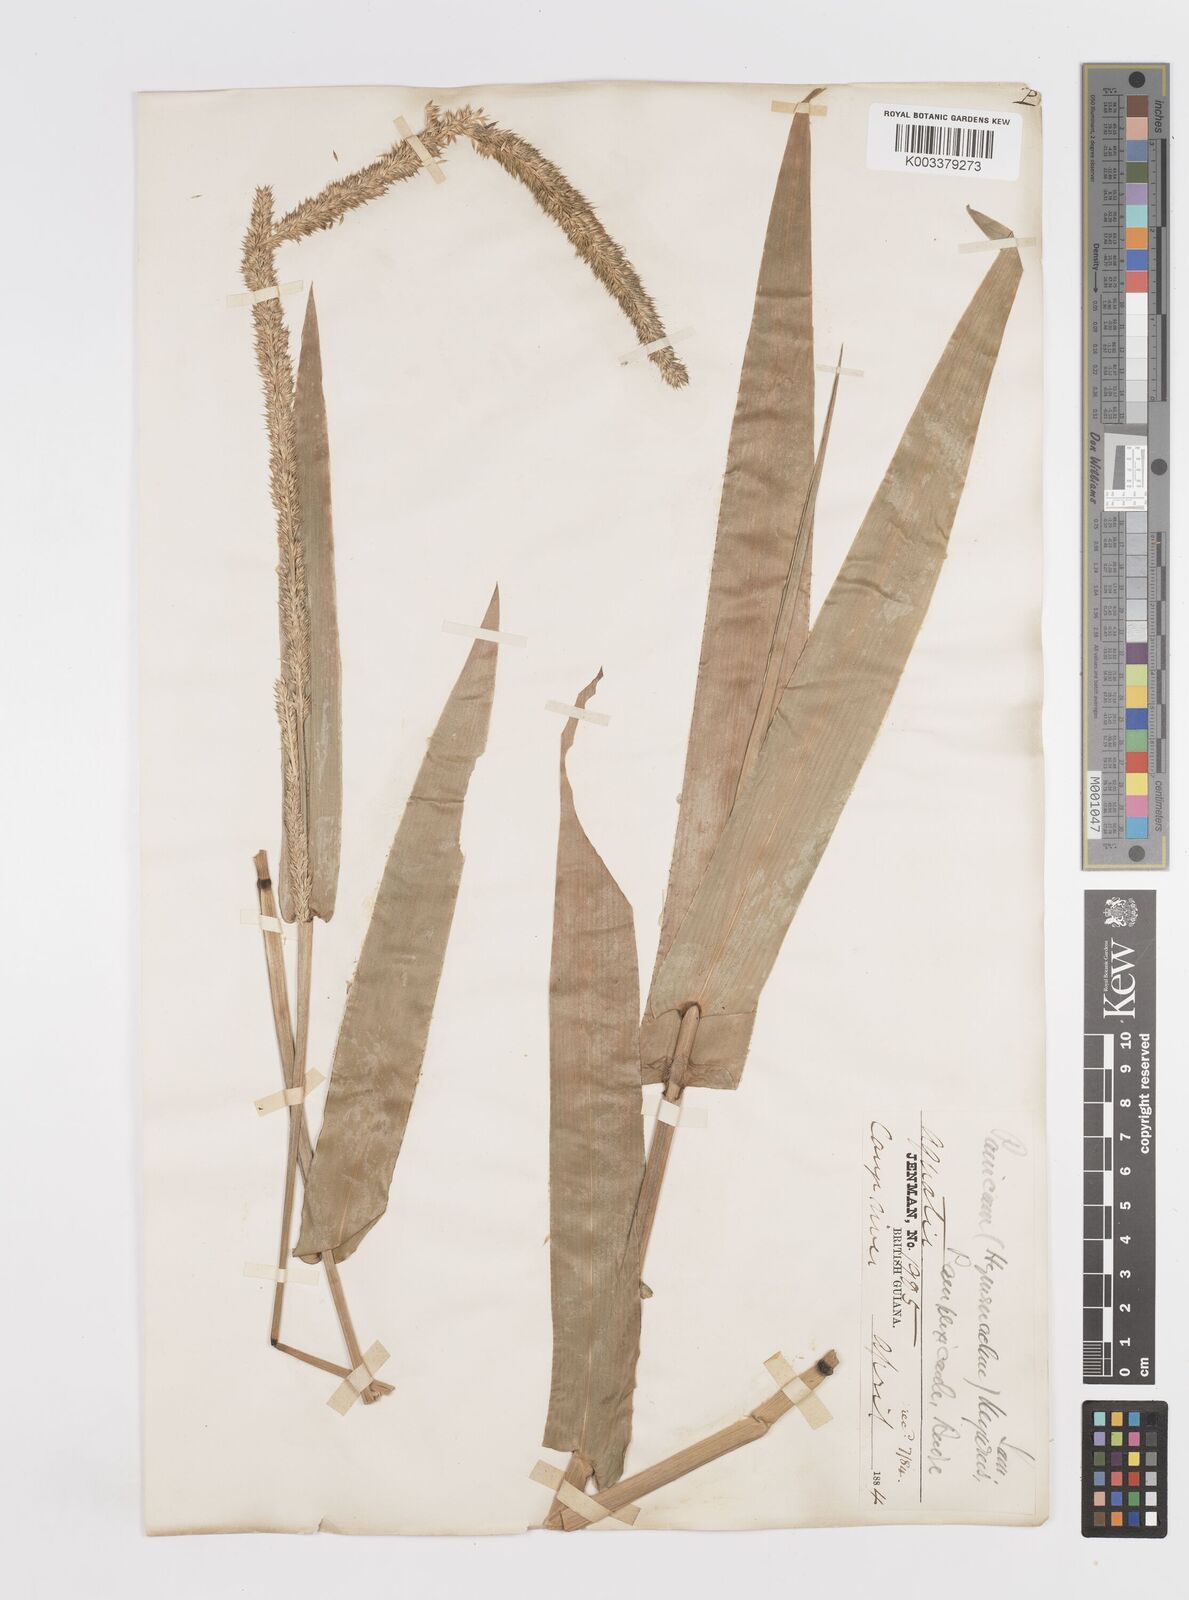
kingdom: Plantae
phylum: Tracheophyta
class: Liliopsida
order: Poales
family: Poaceae
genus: Hymenachne
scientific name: Hymenachne amplexicaulis
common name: Olive hymenachne
